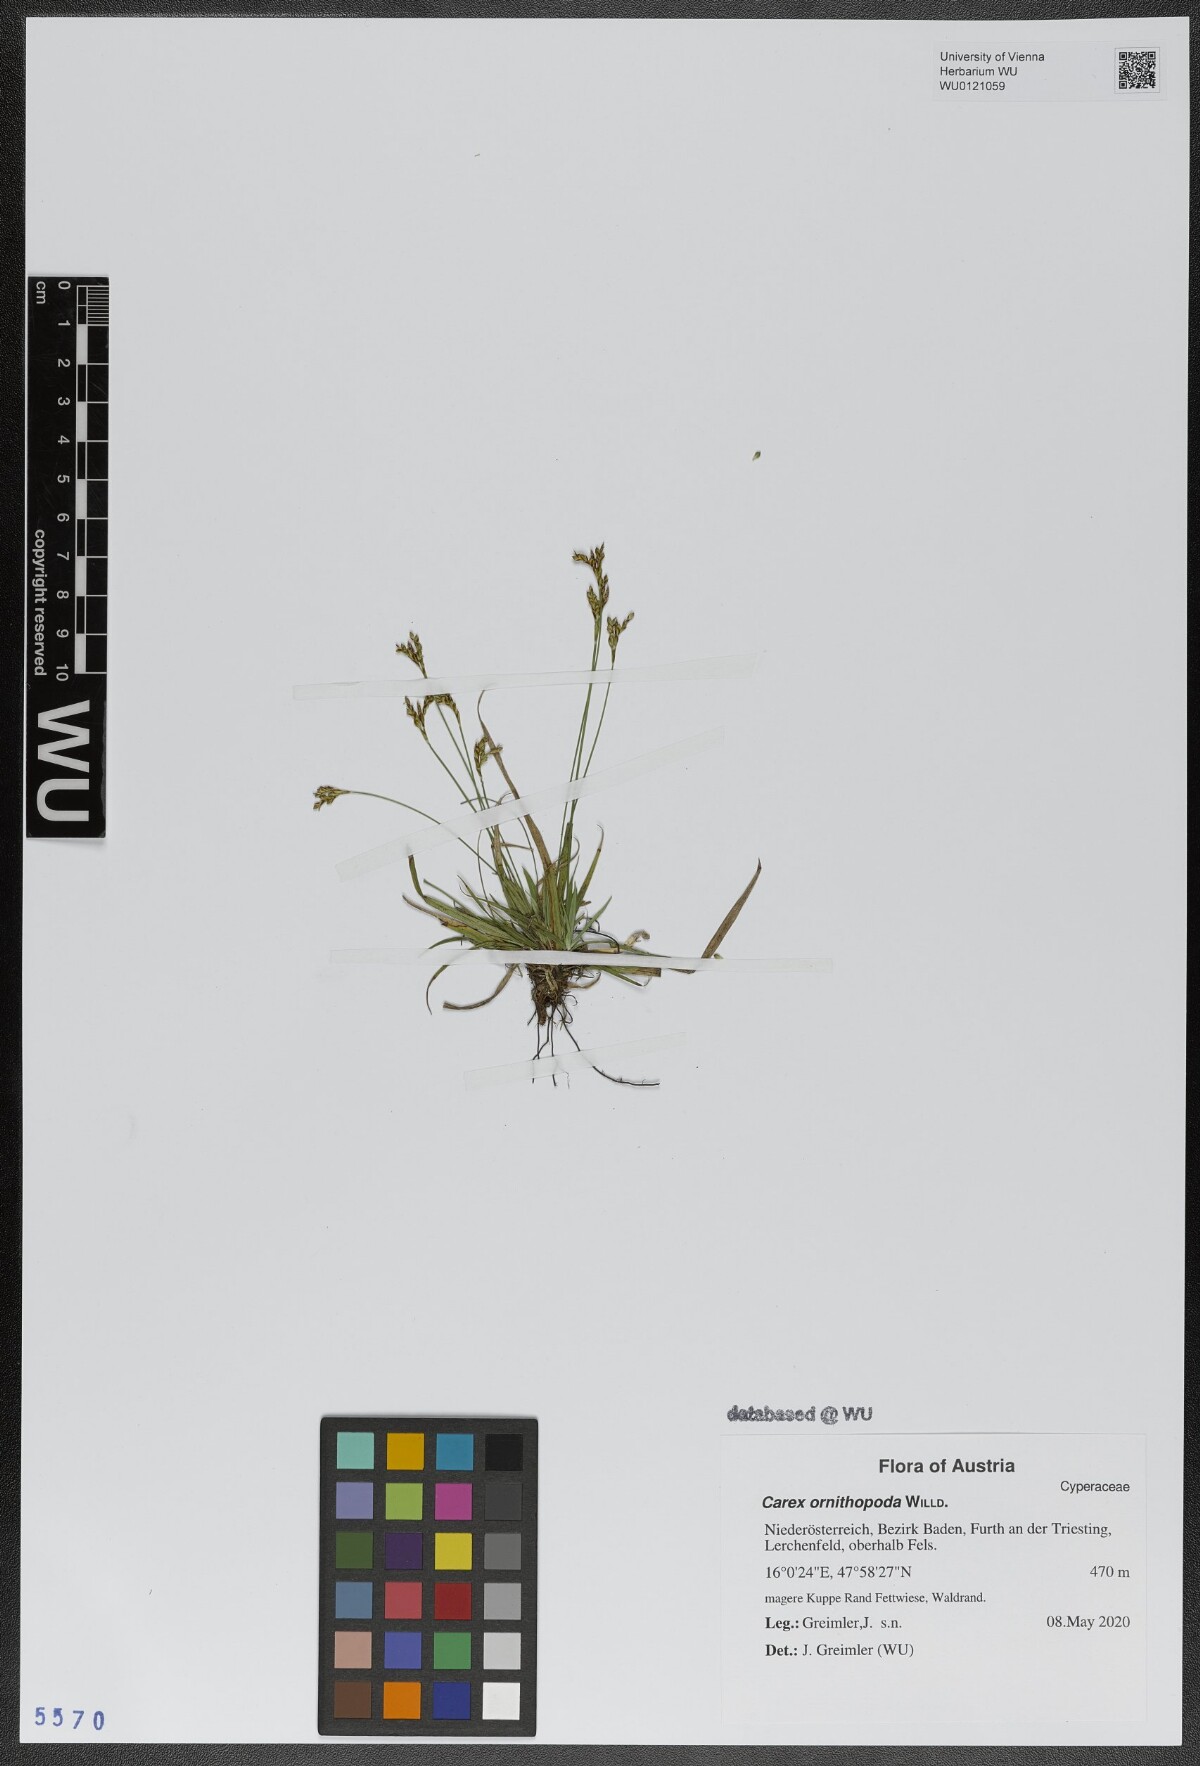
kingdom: Plantae
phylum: Tracheophyta
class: Liliopsida
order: Poales
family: Cyperaceae
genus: Carex
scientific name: Carex ornithopoda
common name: Bird's-foot sedge
